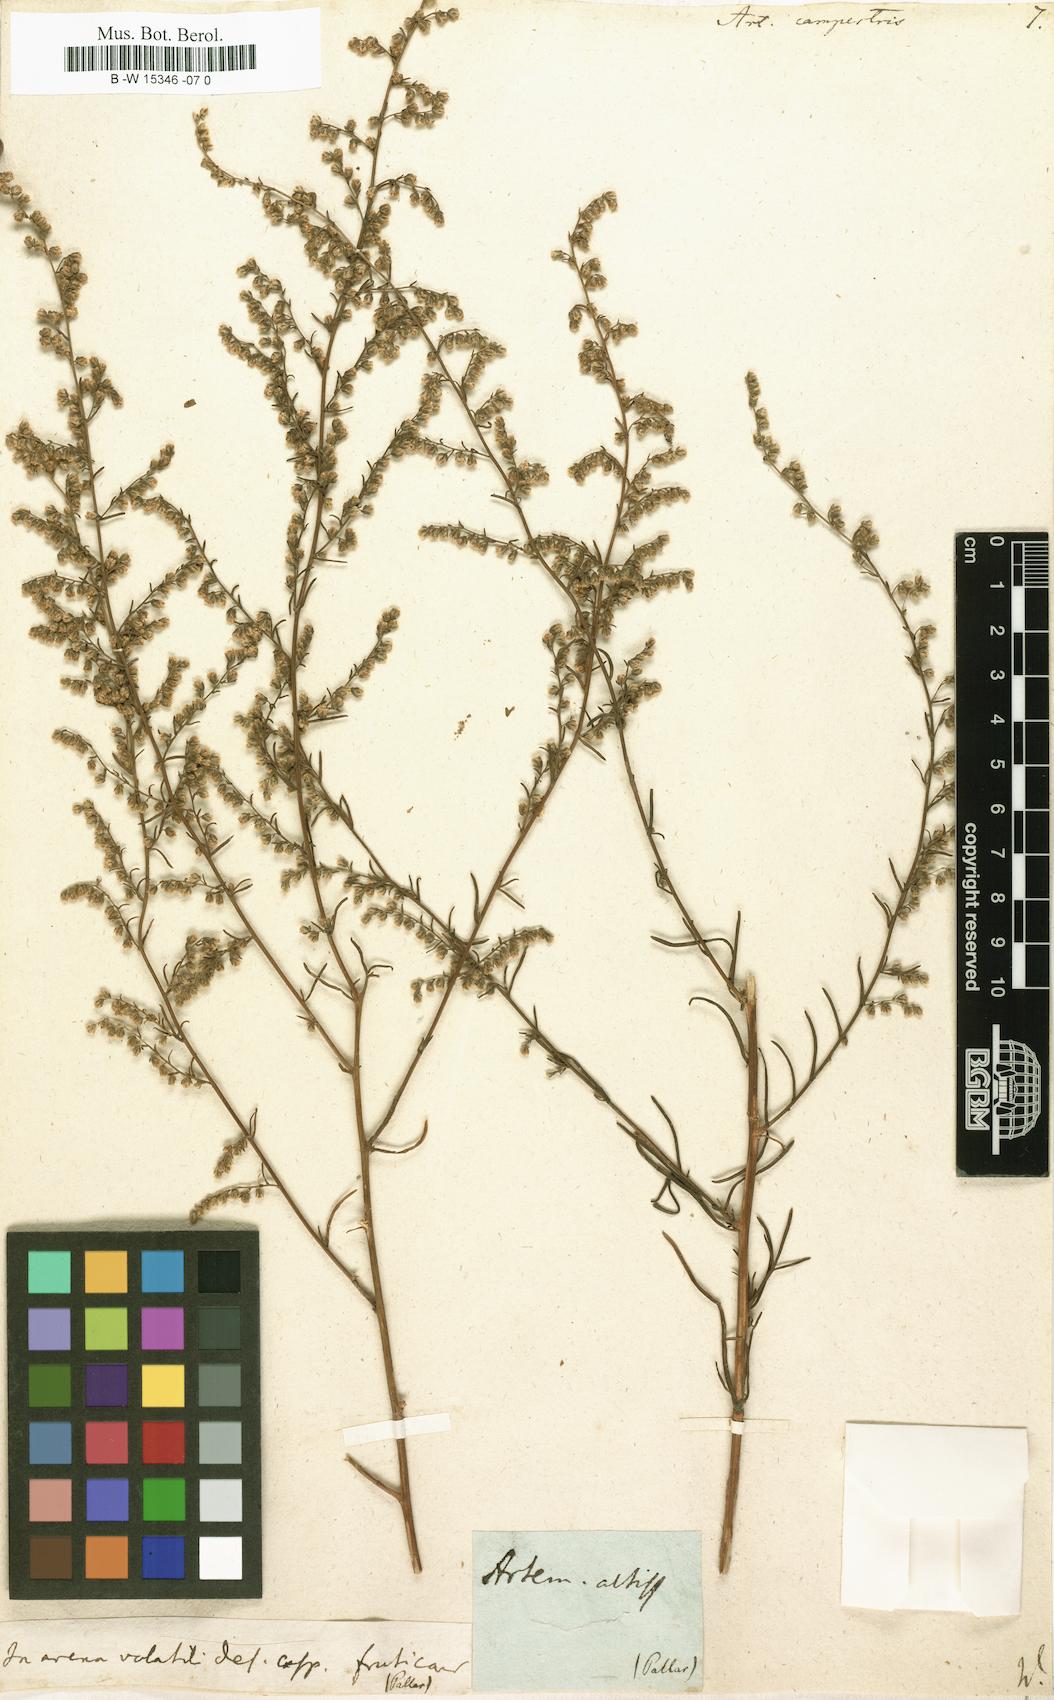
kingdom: Plantae
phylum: Tracheophyta
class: Magnoliopsida
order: Asterales
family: Asteraceae
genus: Artemisia
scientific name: Artemisia campestris
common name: Field wormwood
